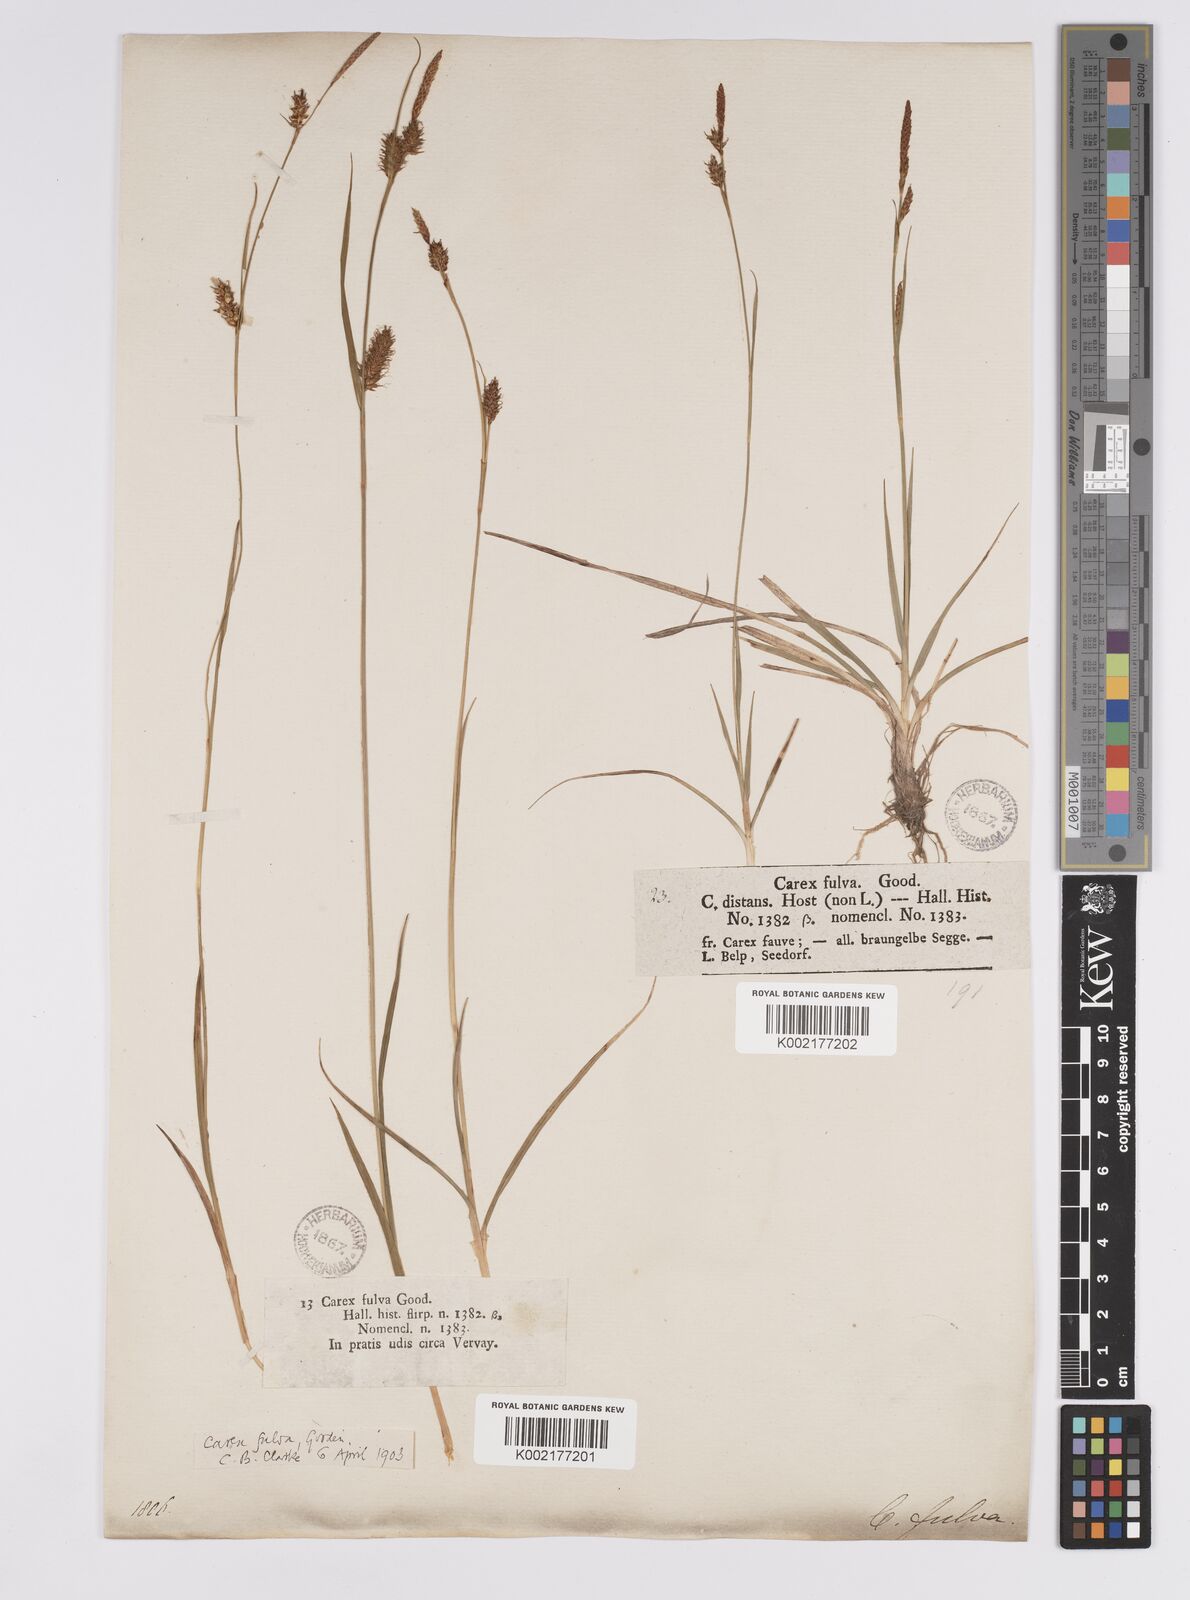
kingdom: Plantae
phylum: Tracheophyta
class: Liliopsida
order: Poales
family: Cyperaceae
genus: Carex
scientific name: Carex hostiana
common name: Tawny sedge
